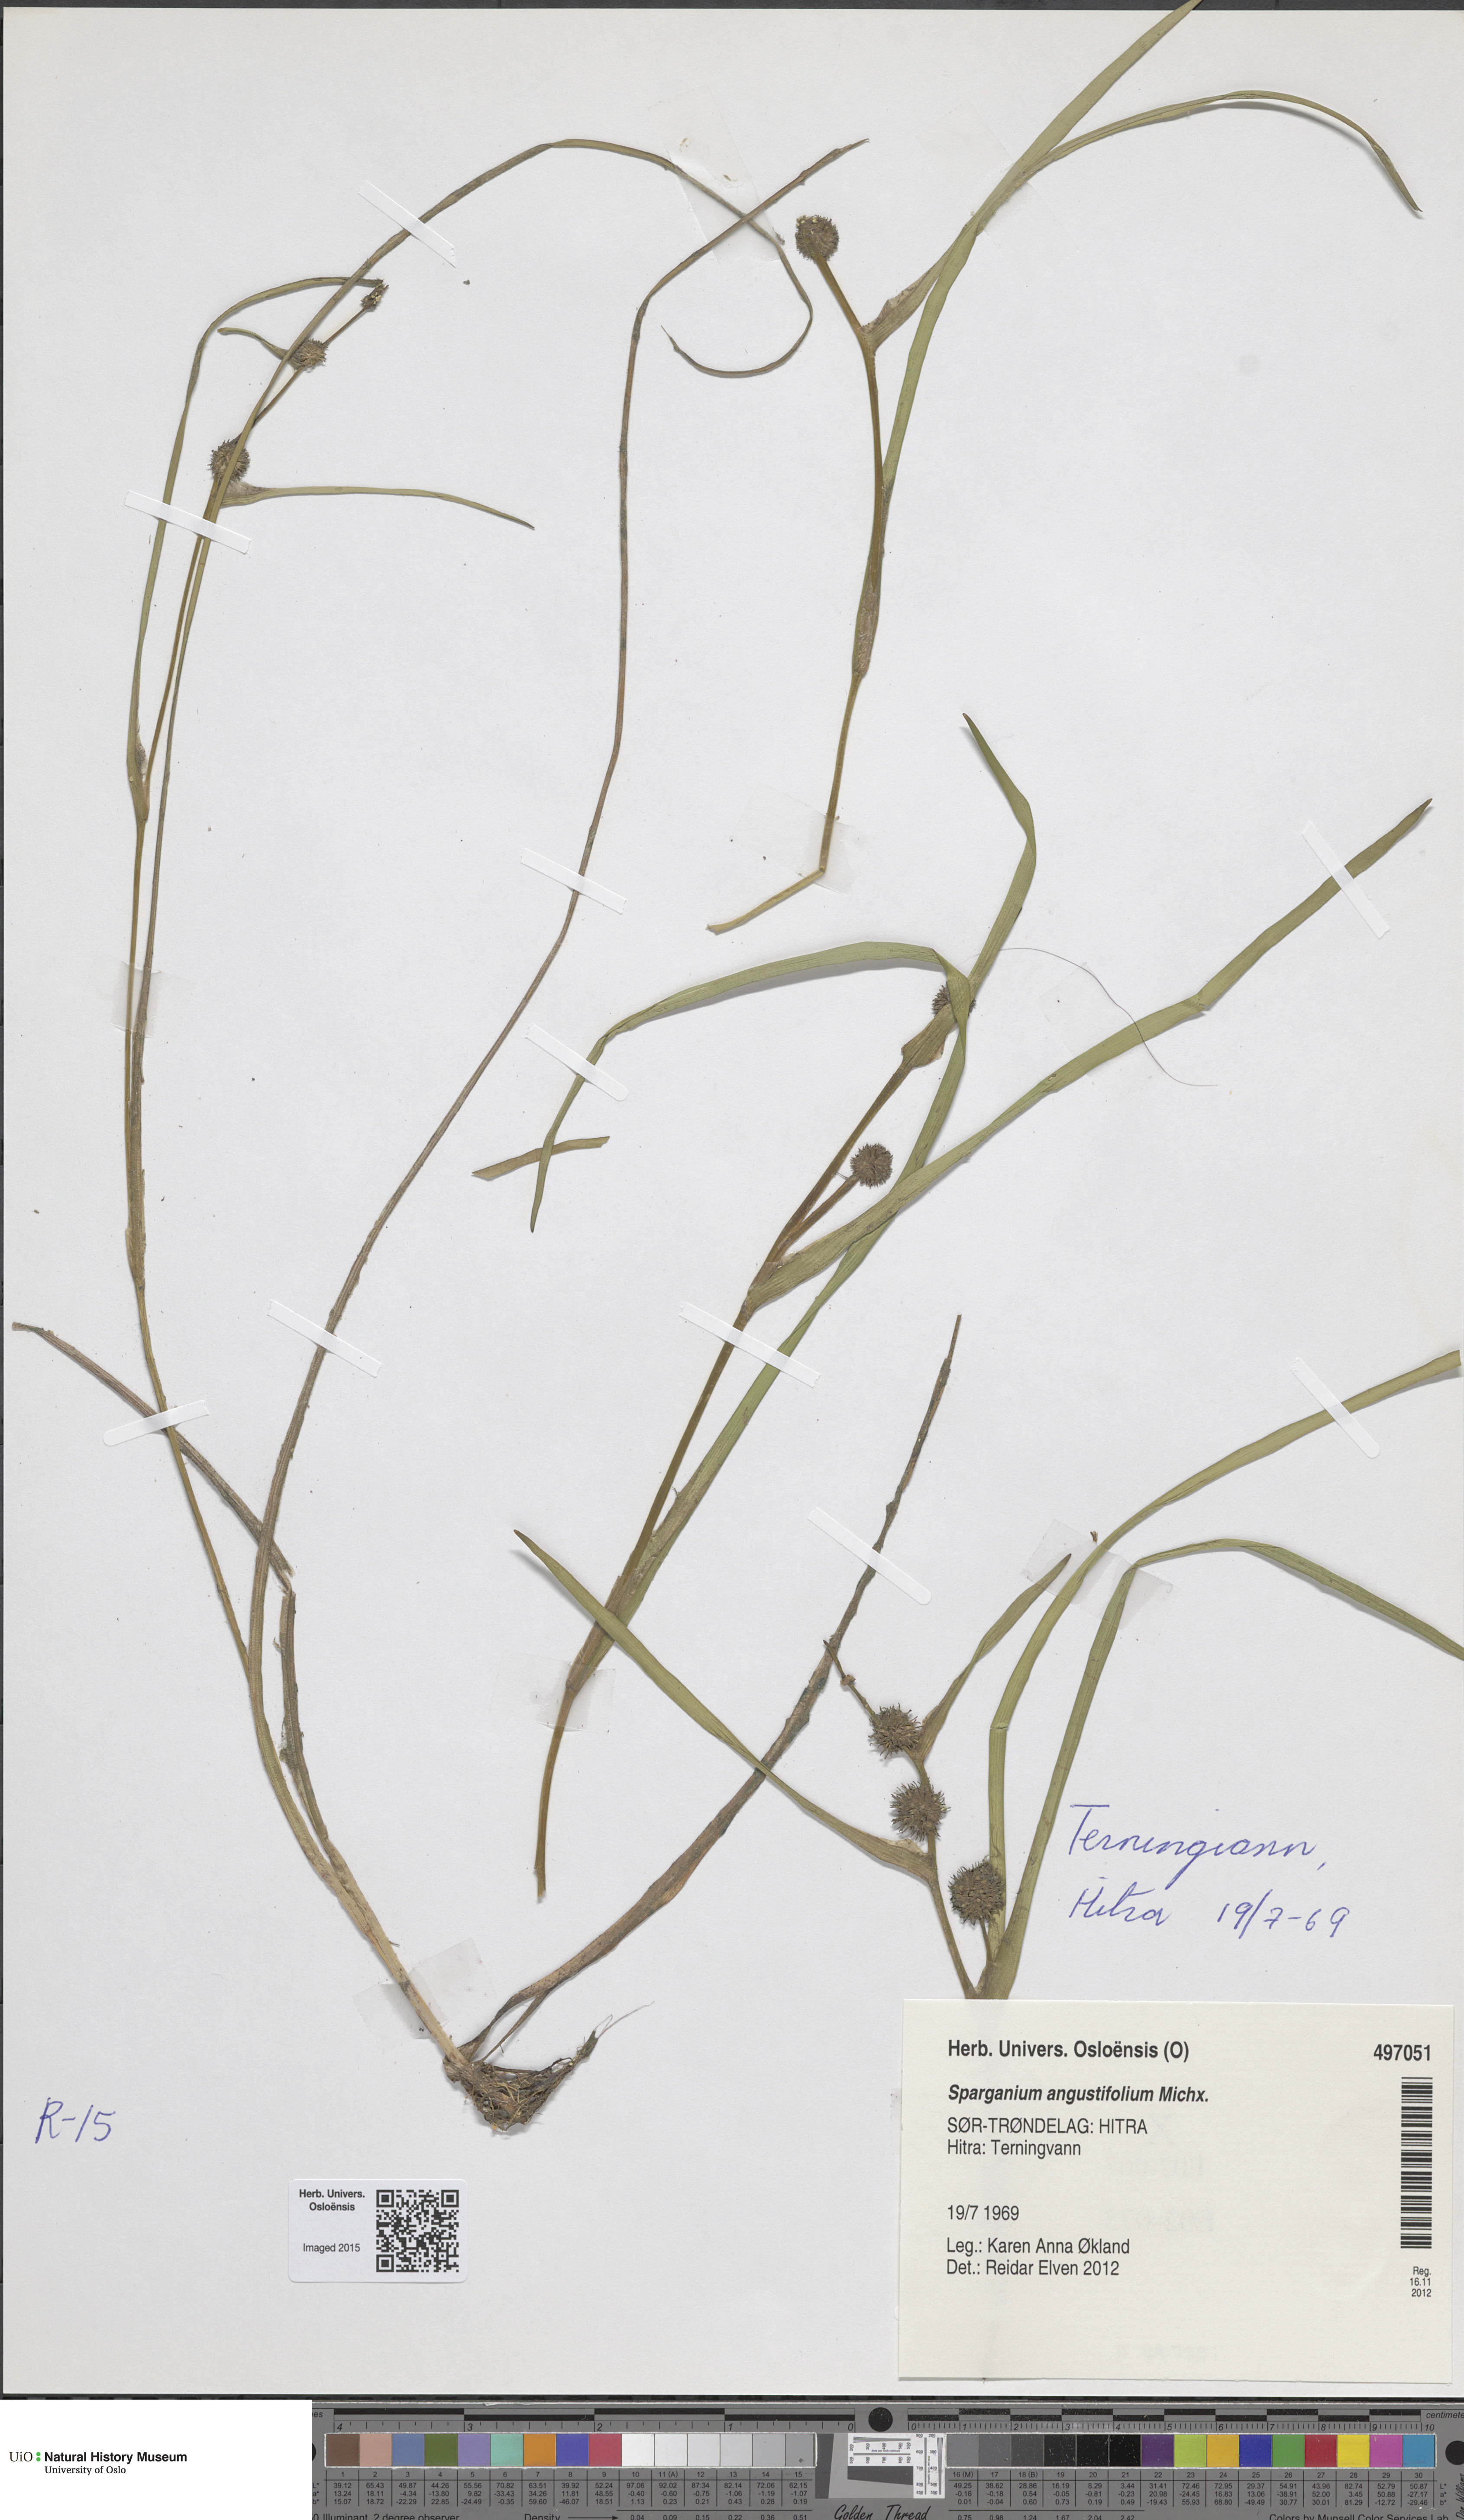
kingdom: Plantae
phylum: Tracheophyta
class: Liliopsida
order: Poales
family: Typhaceae
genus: Sparganium
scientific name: Sparganium angustifolium
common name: Floating bur-reed
